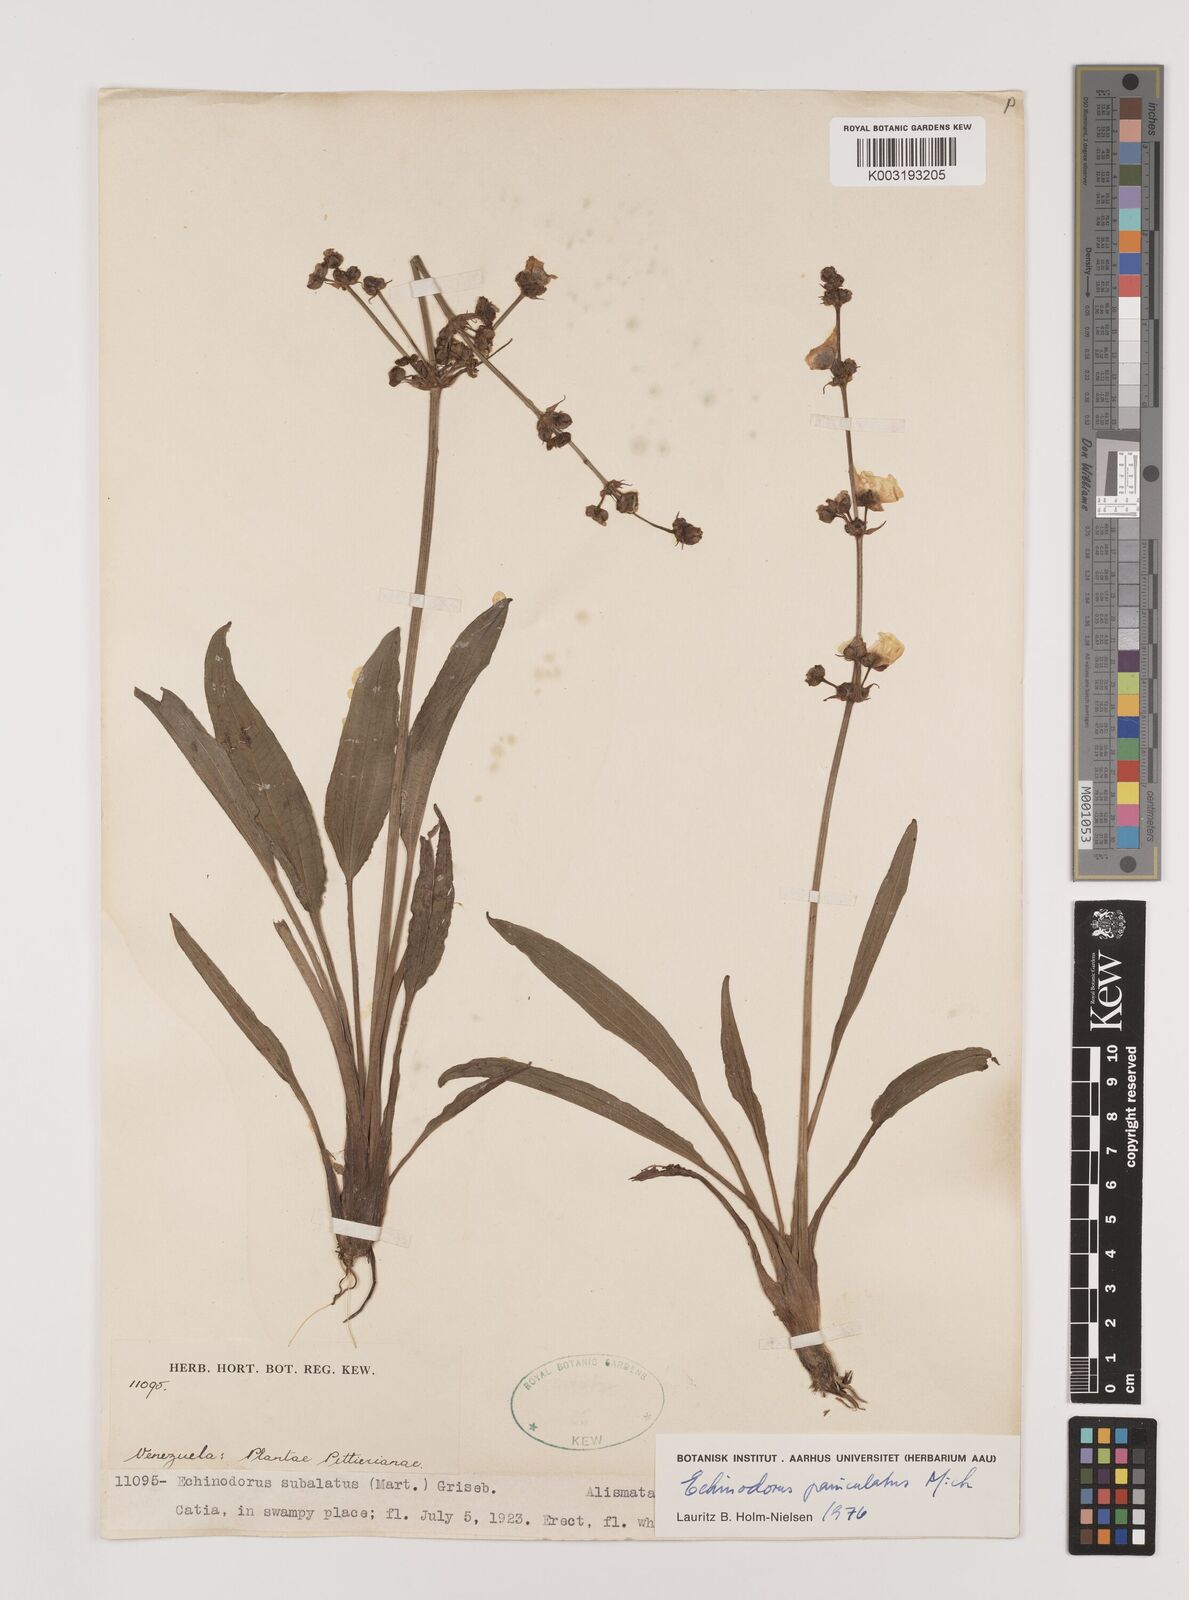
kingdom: Plantae
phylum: Tracheophyta
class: Liliopsida
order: Alismatales
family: Alismataceae
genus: Aquarius
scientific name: Aquarius paniculatus
